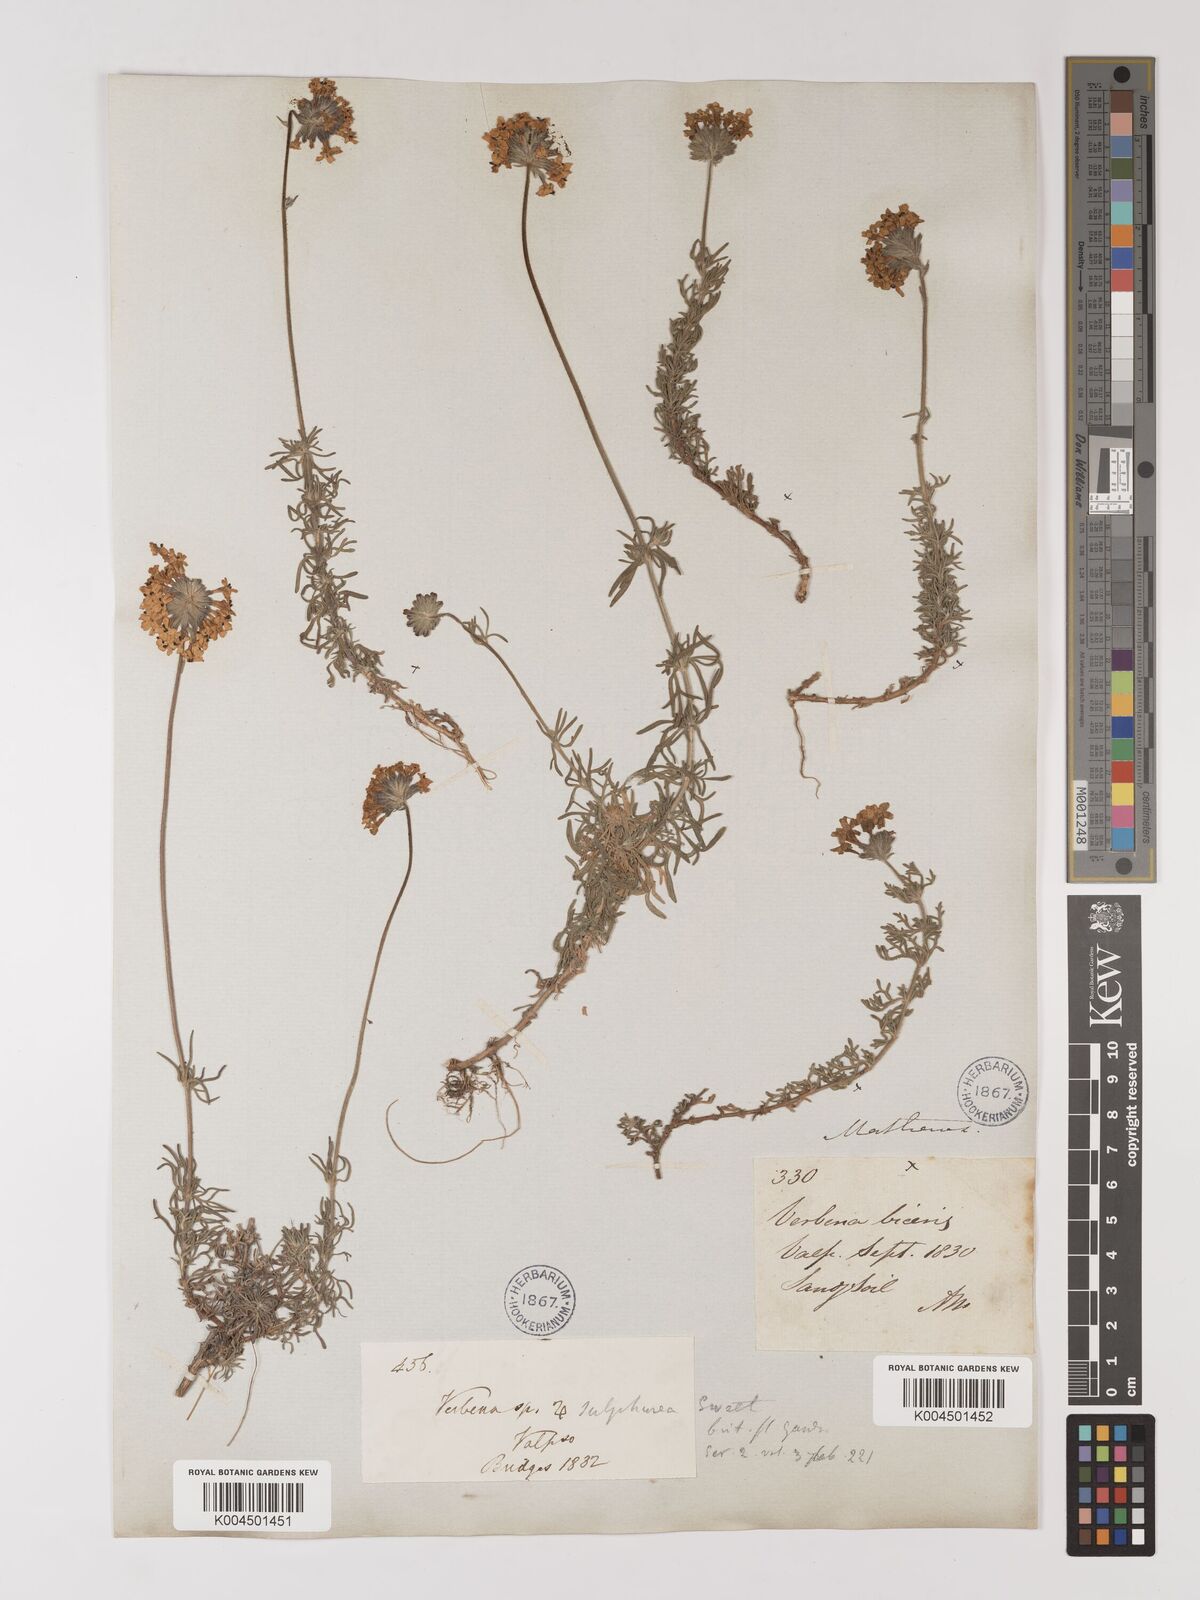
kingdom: Plantae
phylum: Tracheophyta
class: Magnoliopsida
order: Lamiales
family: Verbenaceae
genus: Verbena
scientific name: Verbena sulphurea
